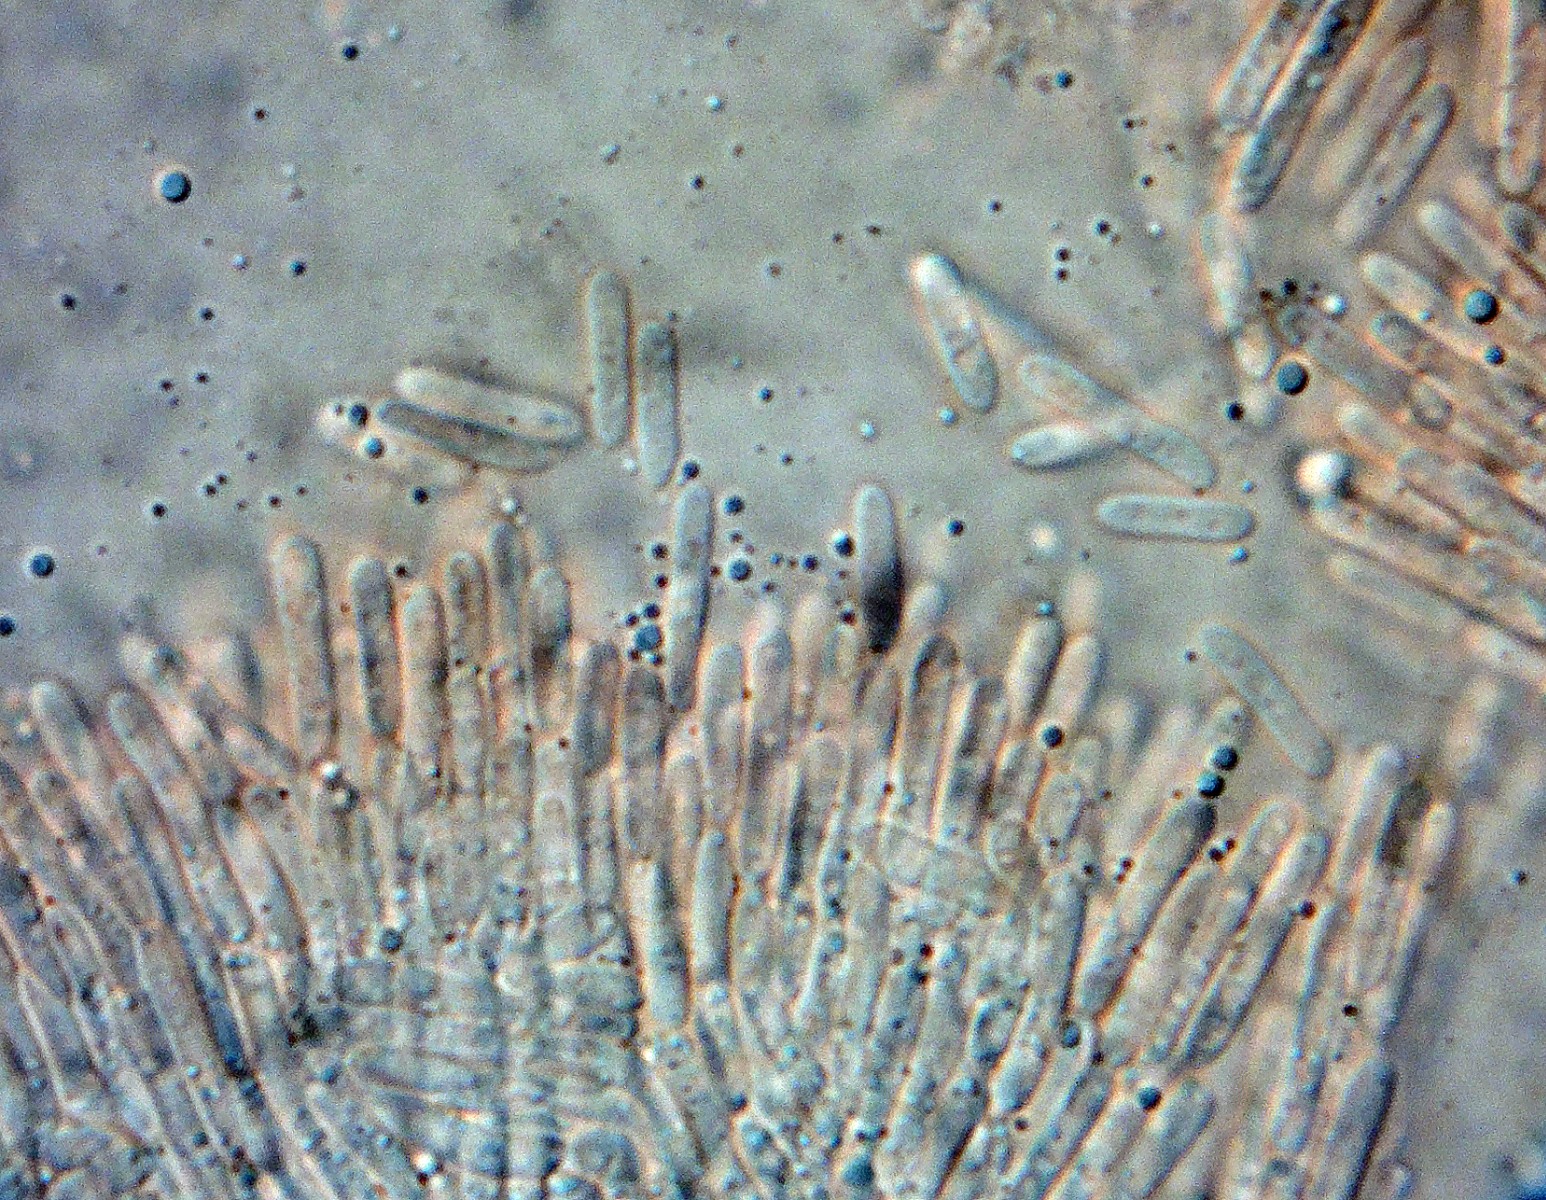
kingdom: Fungi
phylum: Ascomycota
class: Leotiomycetes
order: Helotiales
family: Helotiaceae
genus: Trichotheca
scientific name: Trichotheca alba
